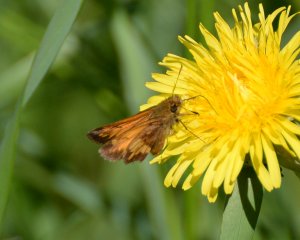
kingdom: Animalia
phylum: Arthropoda
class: Insecta
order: Lepidoptera
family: Hesperiidae
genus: Lon
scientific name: Lon hobomok
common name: Hobomok Skipper
